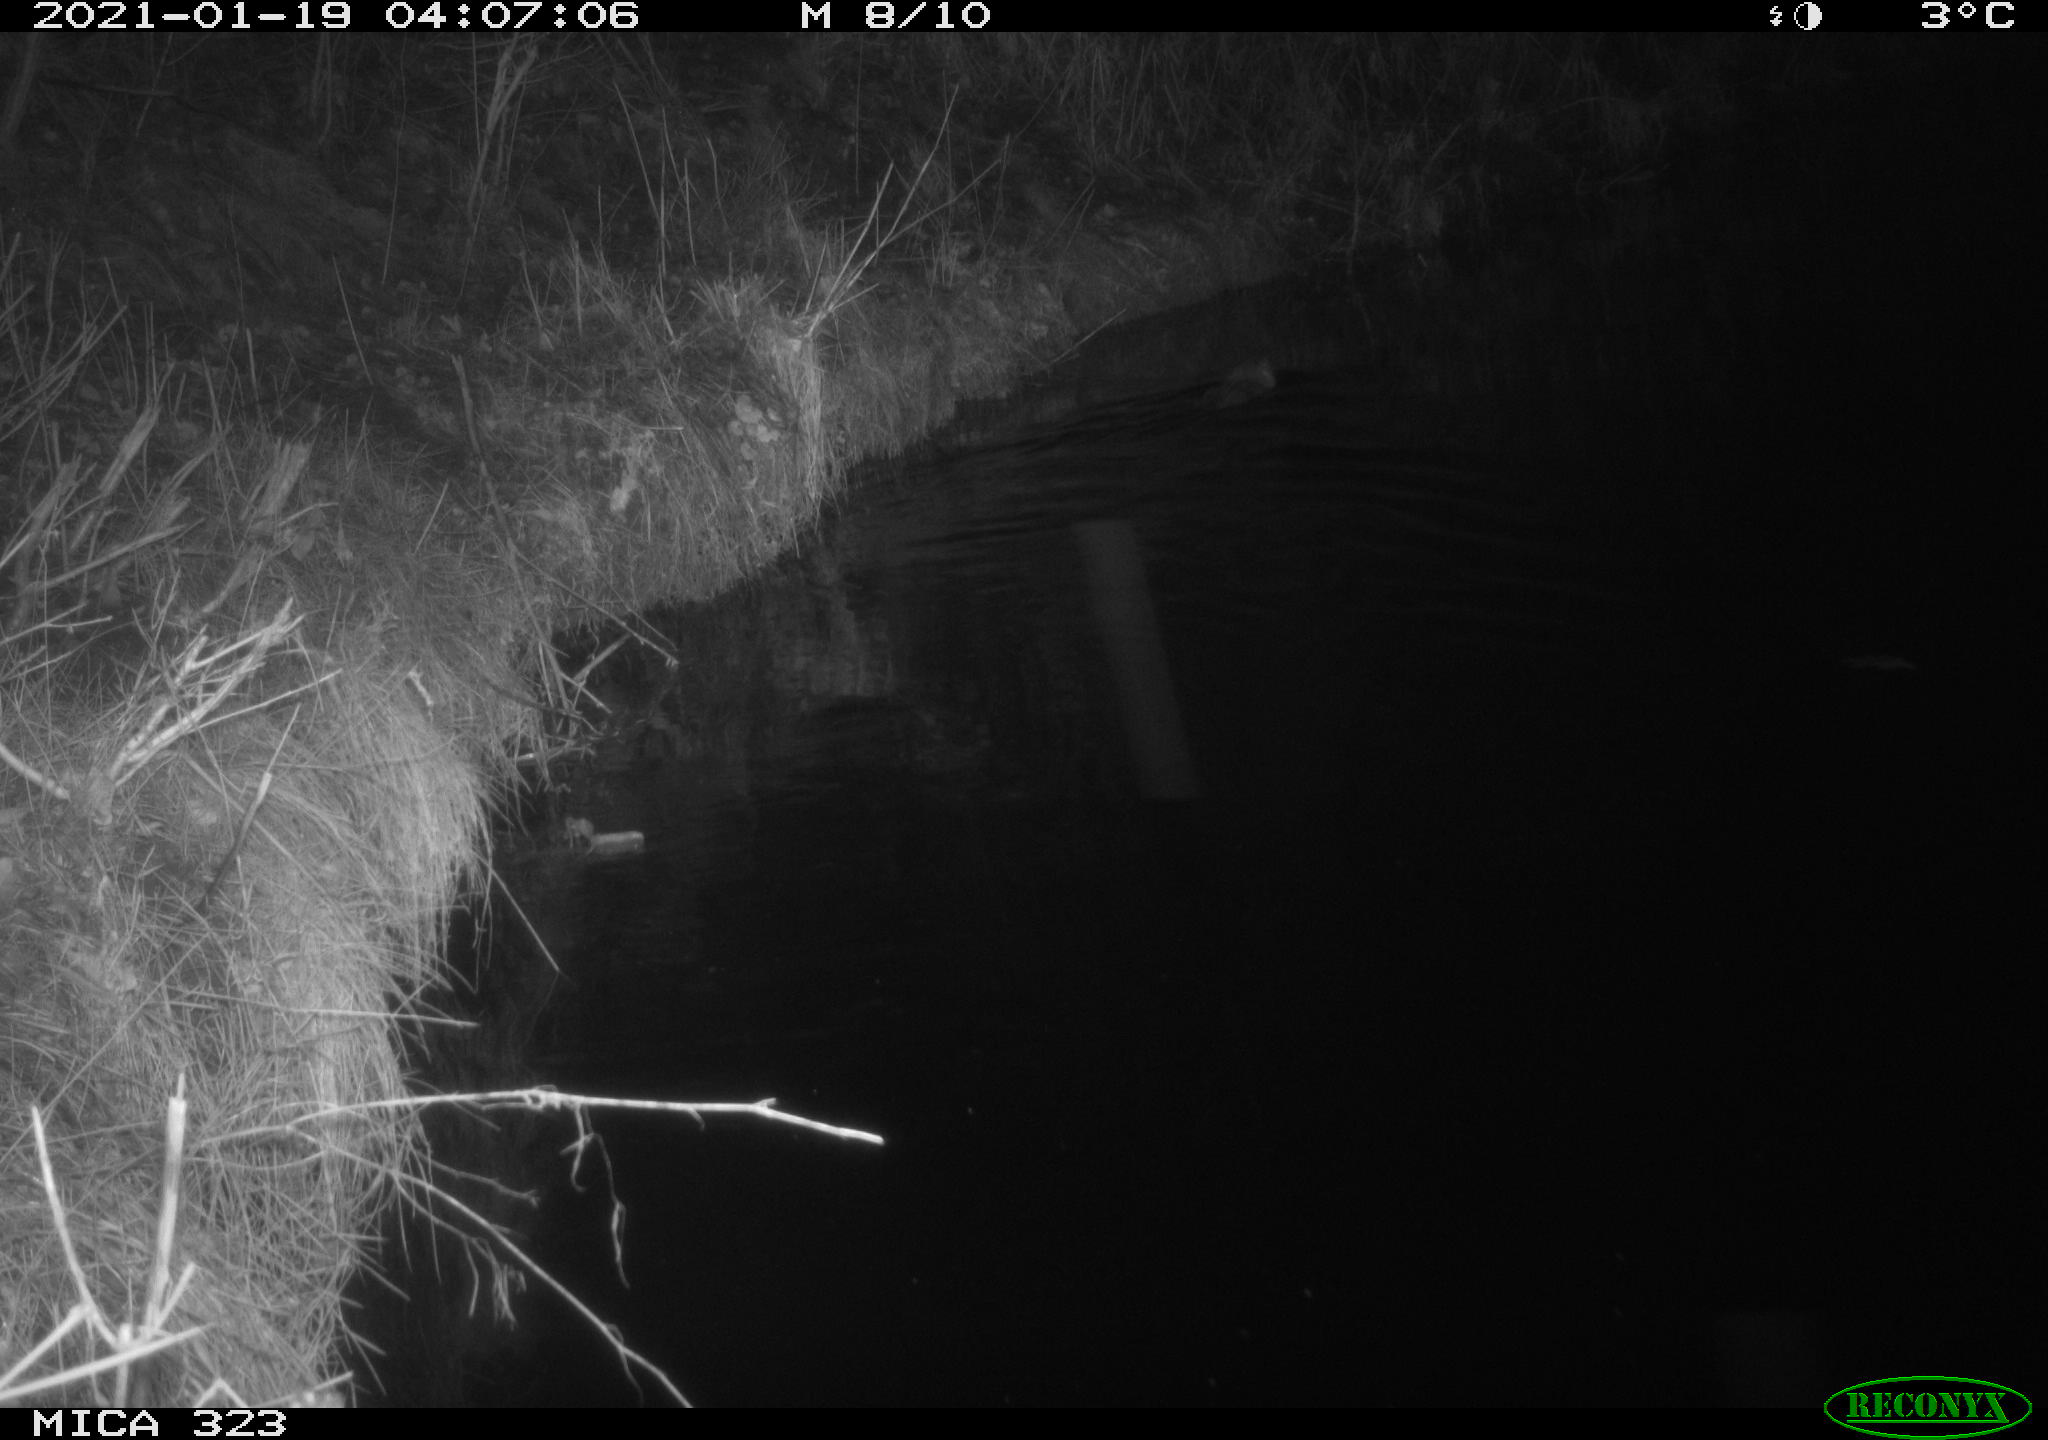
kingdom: Animalia
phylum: Chordata
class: Mammalia
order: Rodentia
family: Myocastoridae
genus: Myocastor
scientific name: Myocastor coypus
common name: Coypu
